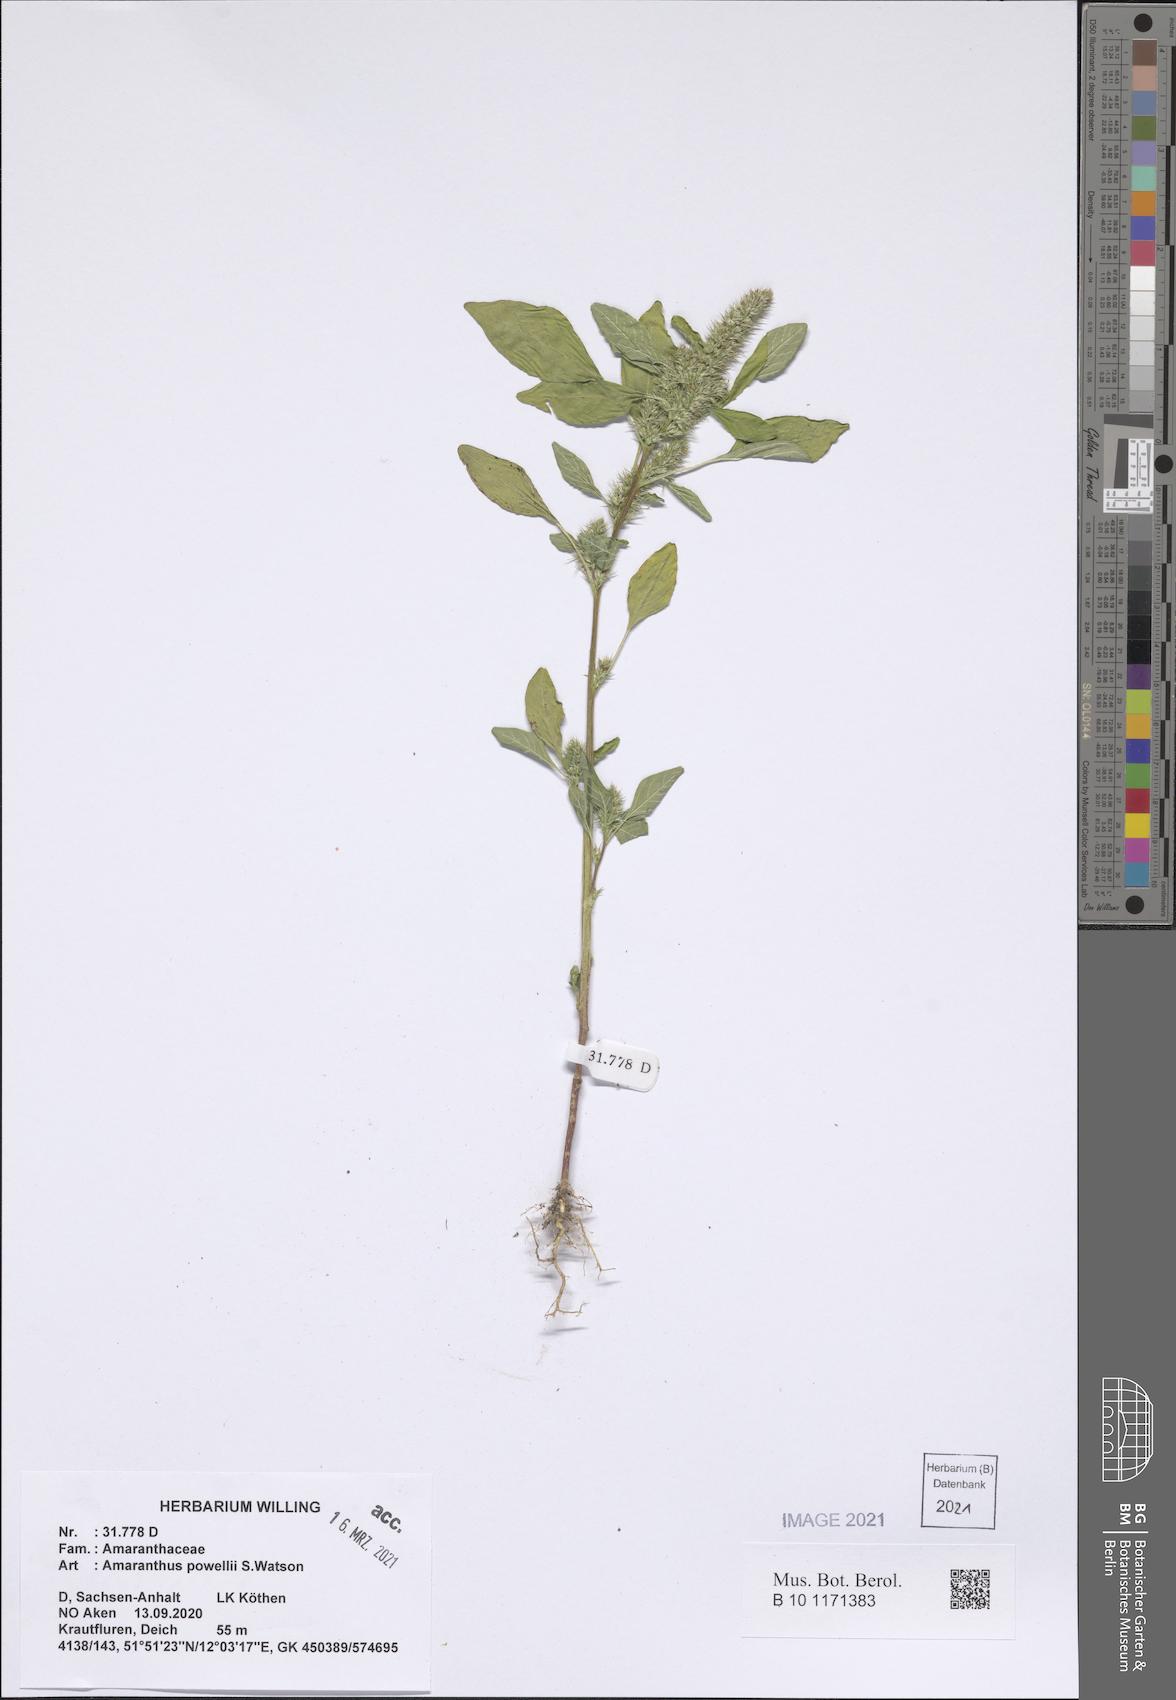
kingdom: Plantae
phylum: Tracheophyta
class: Magnoliopsida
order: Caryophyllales
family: Amaranthaceae
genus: Amaranthus
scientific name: Amaranthus powellii
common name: Powell's amaranth
